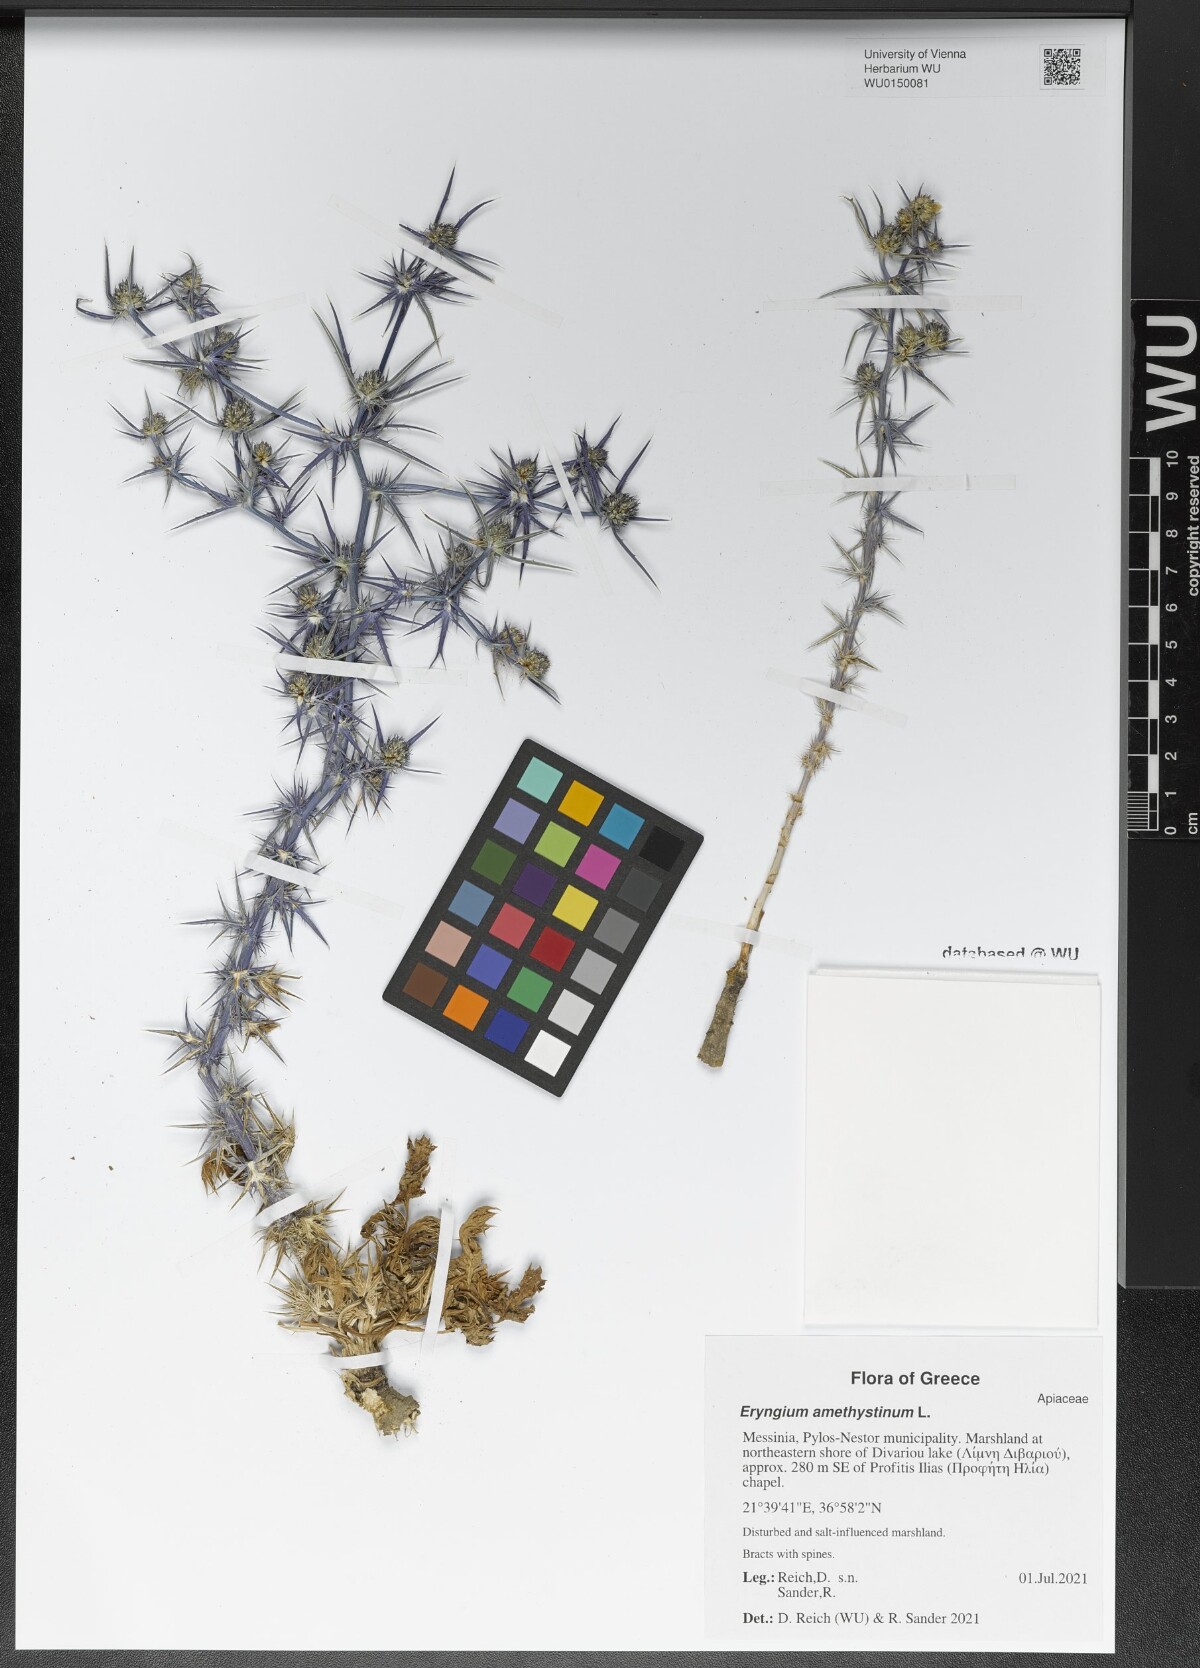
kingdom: Plantae
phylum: Tracheophyta
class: Magnoliopsida
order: Apiales
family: Apiaceae
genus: Eryngium
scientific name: Eryngium amethystinum
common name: Amethyst eryngo
